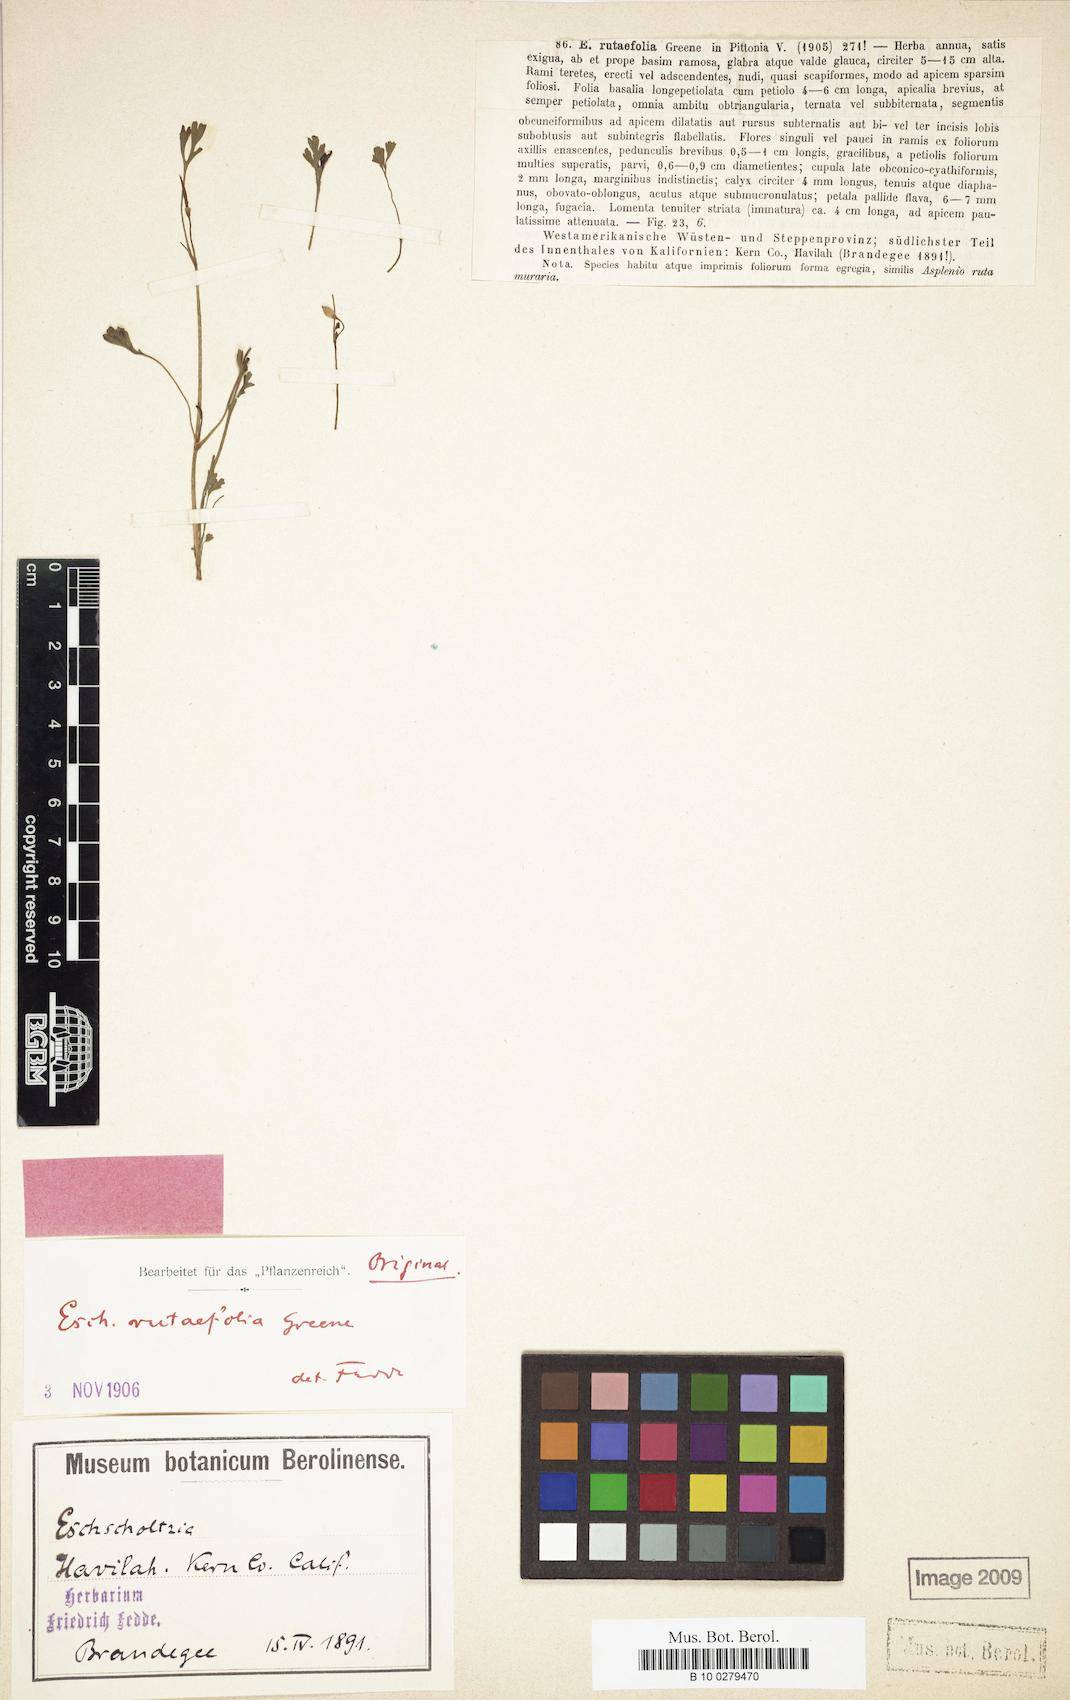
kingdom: Plantae
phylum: Tracheophyta
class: Magnoliopsida
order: Ranunculales
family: Papaveraceae
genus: Eschscholzia
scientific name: Eschscholzia minutiflora
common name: Small-flower california-poppy
